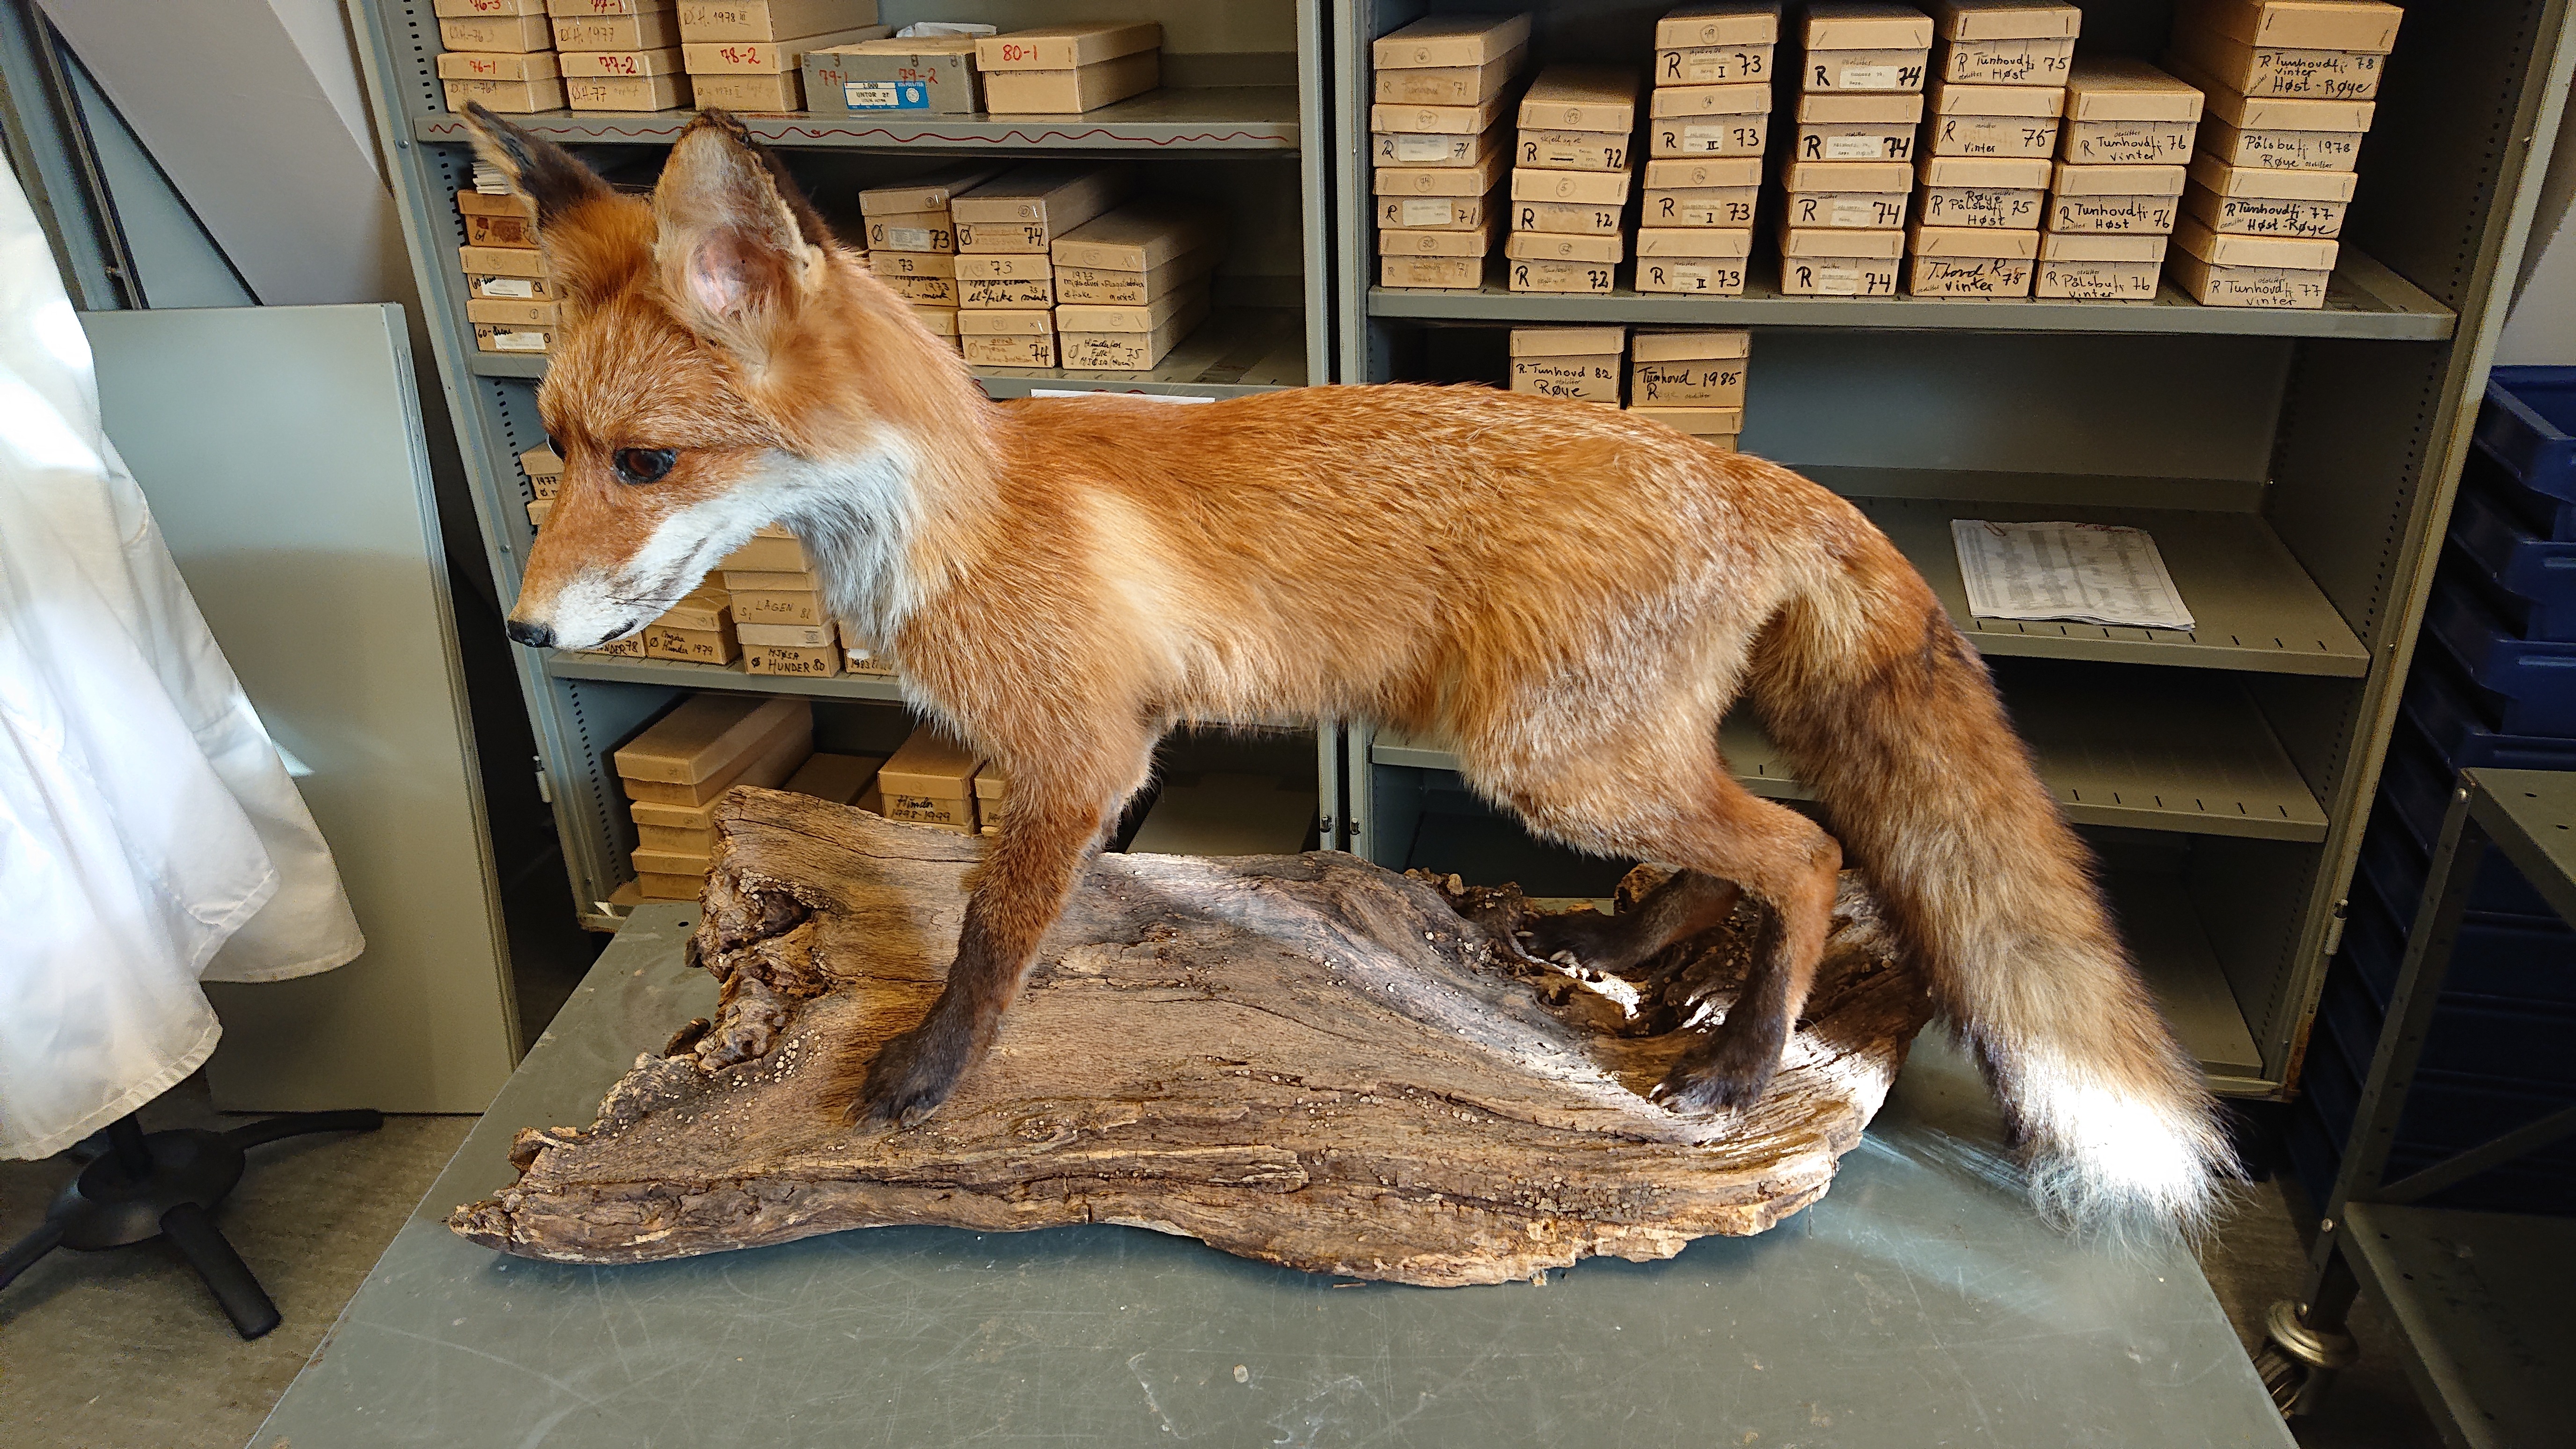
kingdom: Animalia
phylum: Chordata
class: Mammalia
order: Carnivora
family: Canidae
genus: Vulpes
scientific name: Vulpes vulpes
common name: Red fox
